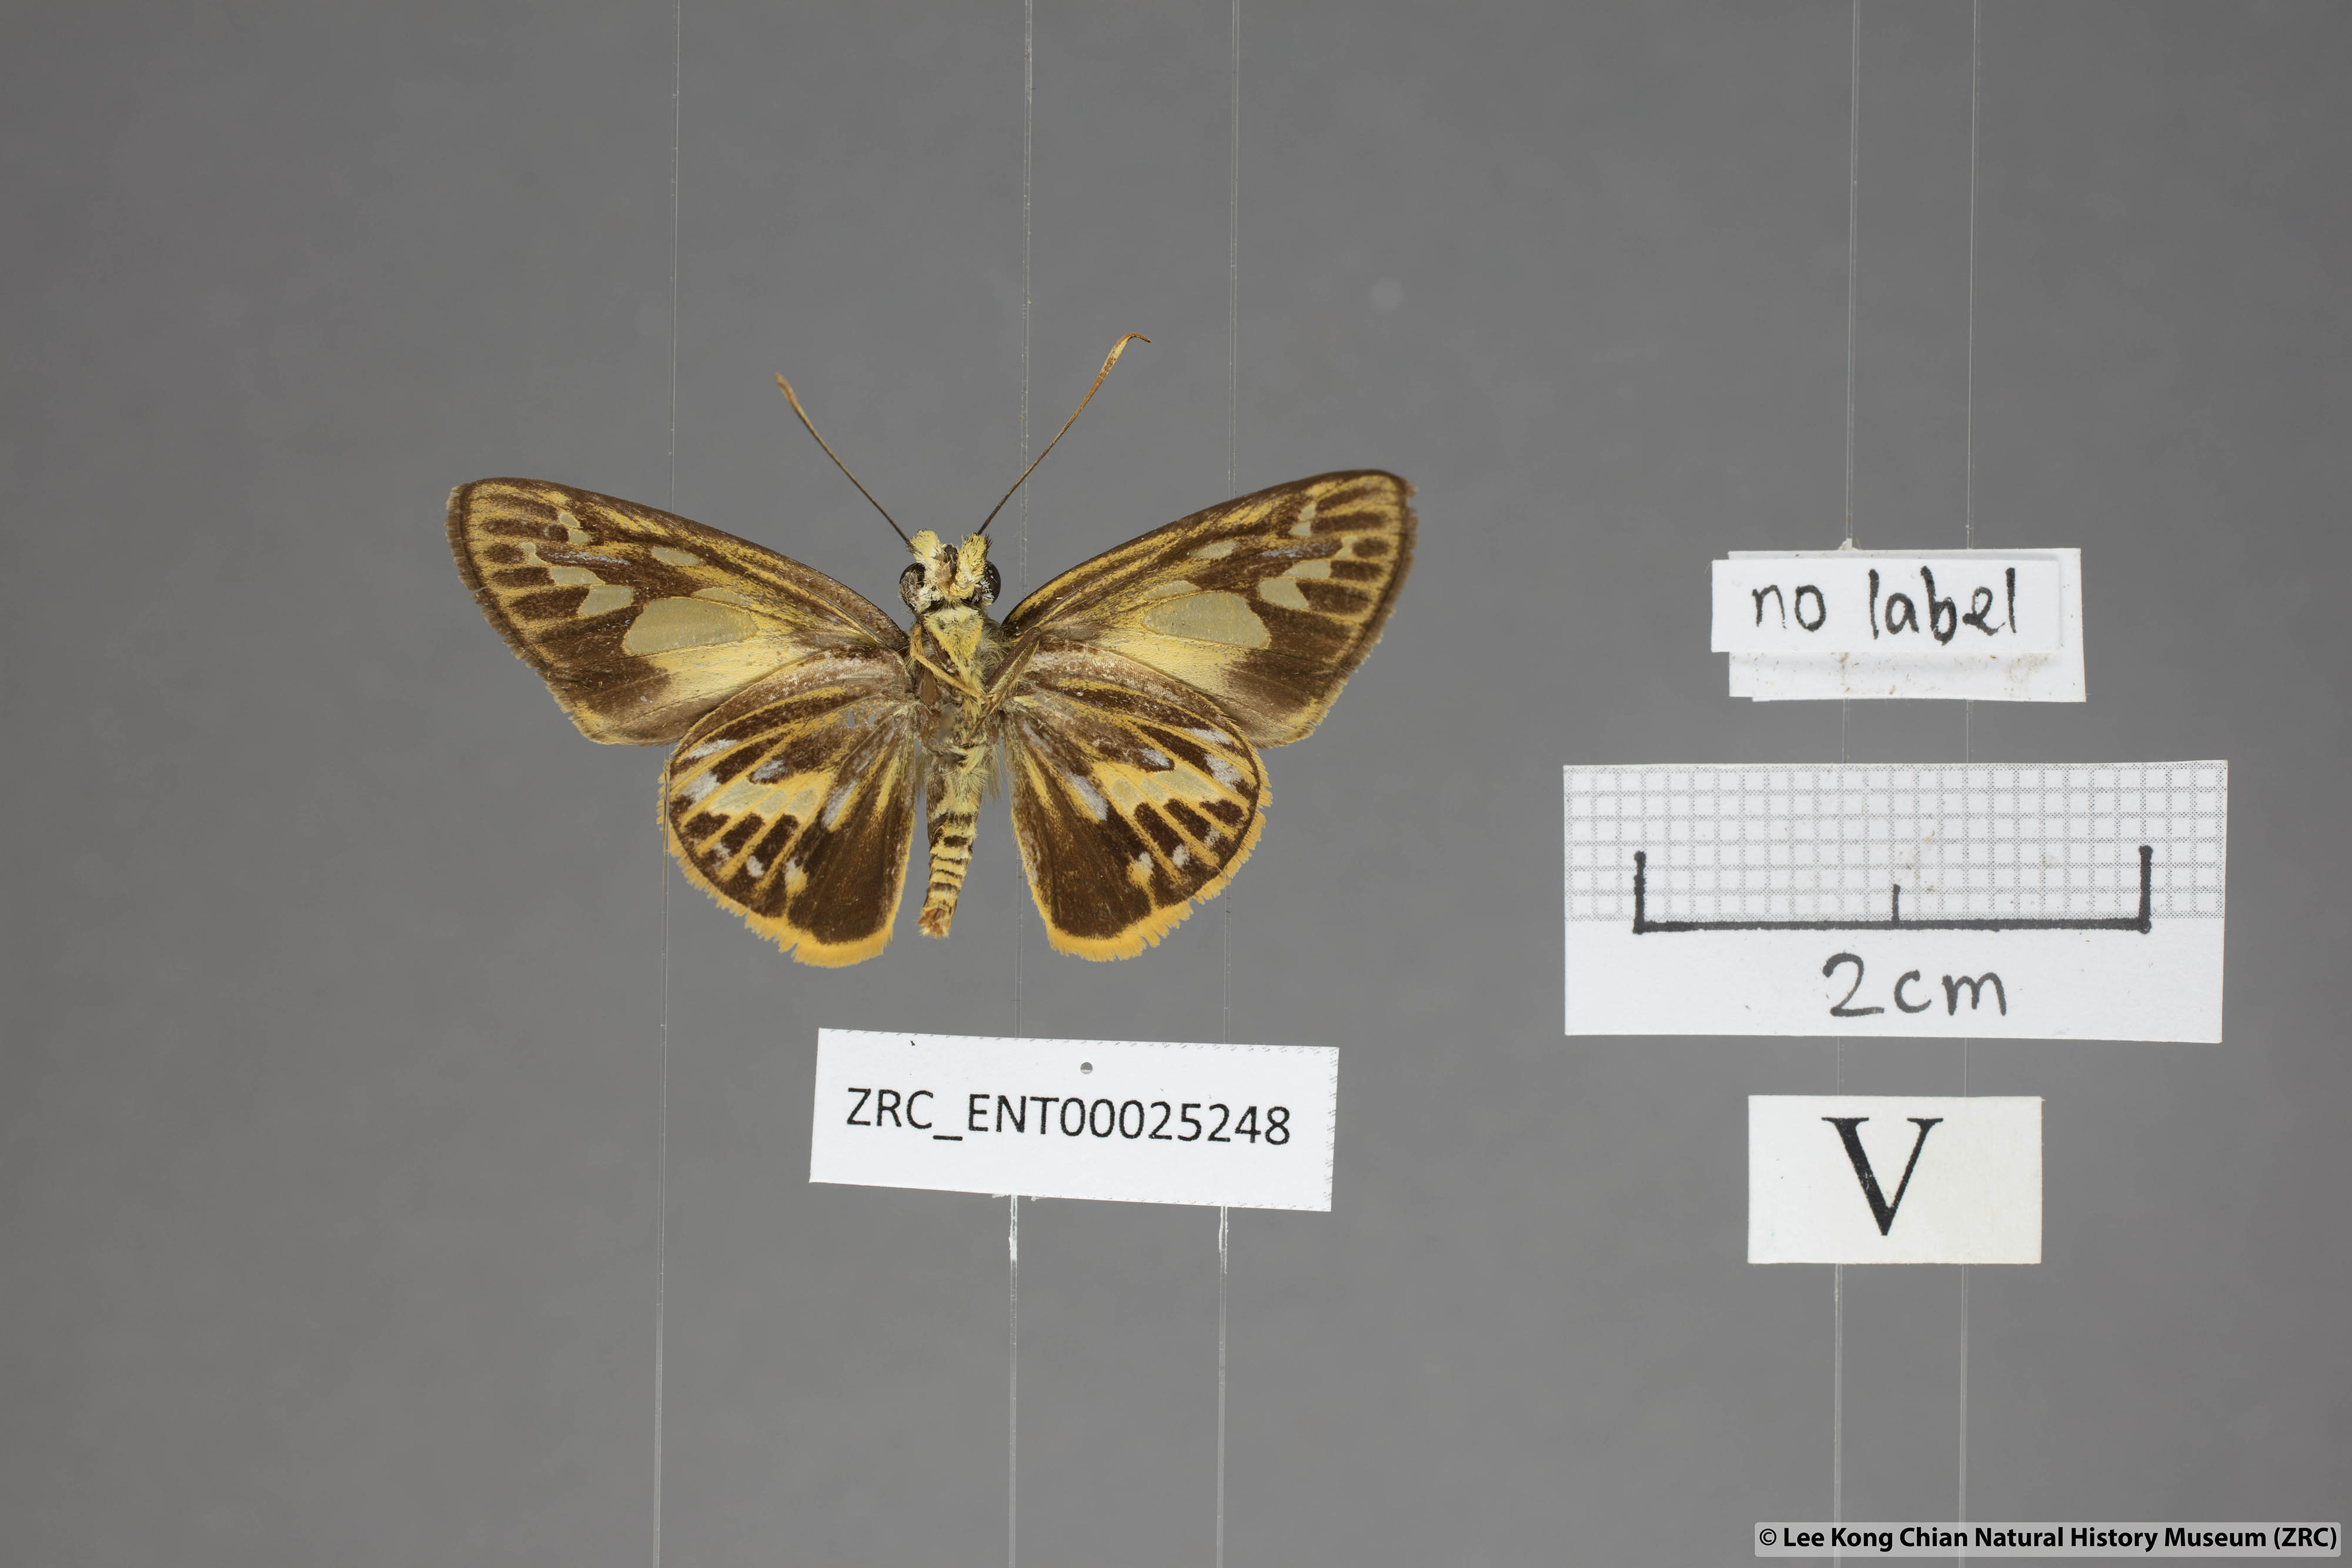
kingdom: Animalia
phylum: Arthropoda
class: Insecta
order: Lepidoptera
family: Hesperiidae
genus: Pyroneura
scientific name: Pyroneura latoia
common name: Yellow vein lancer
